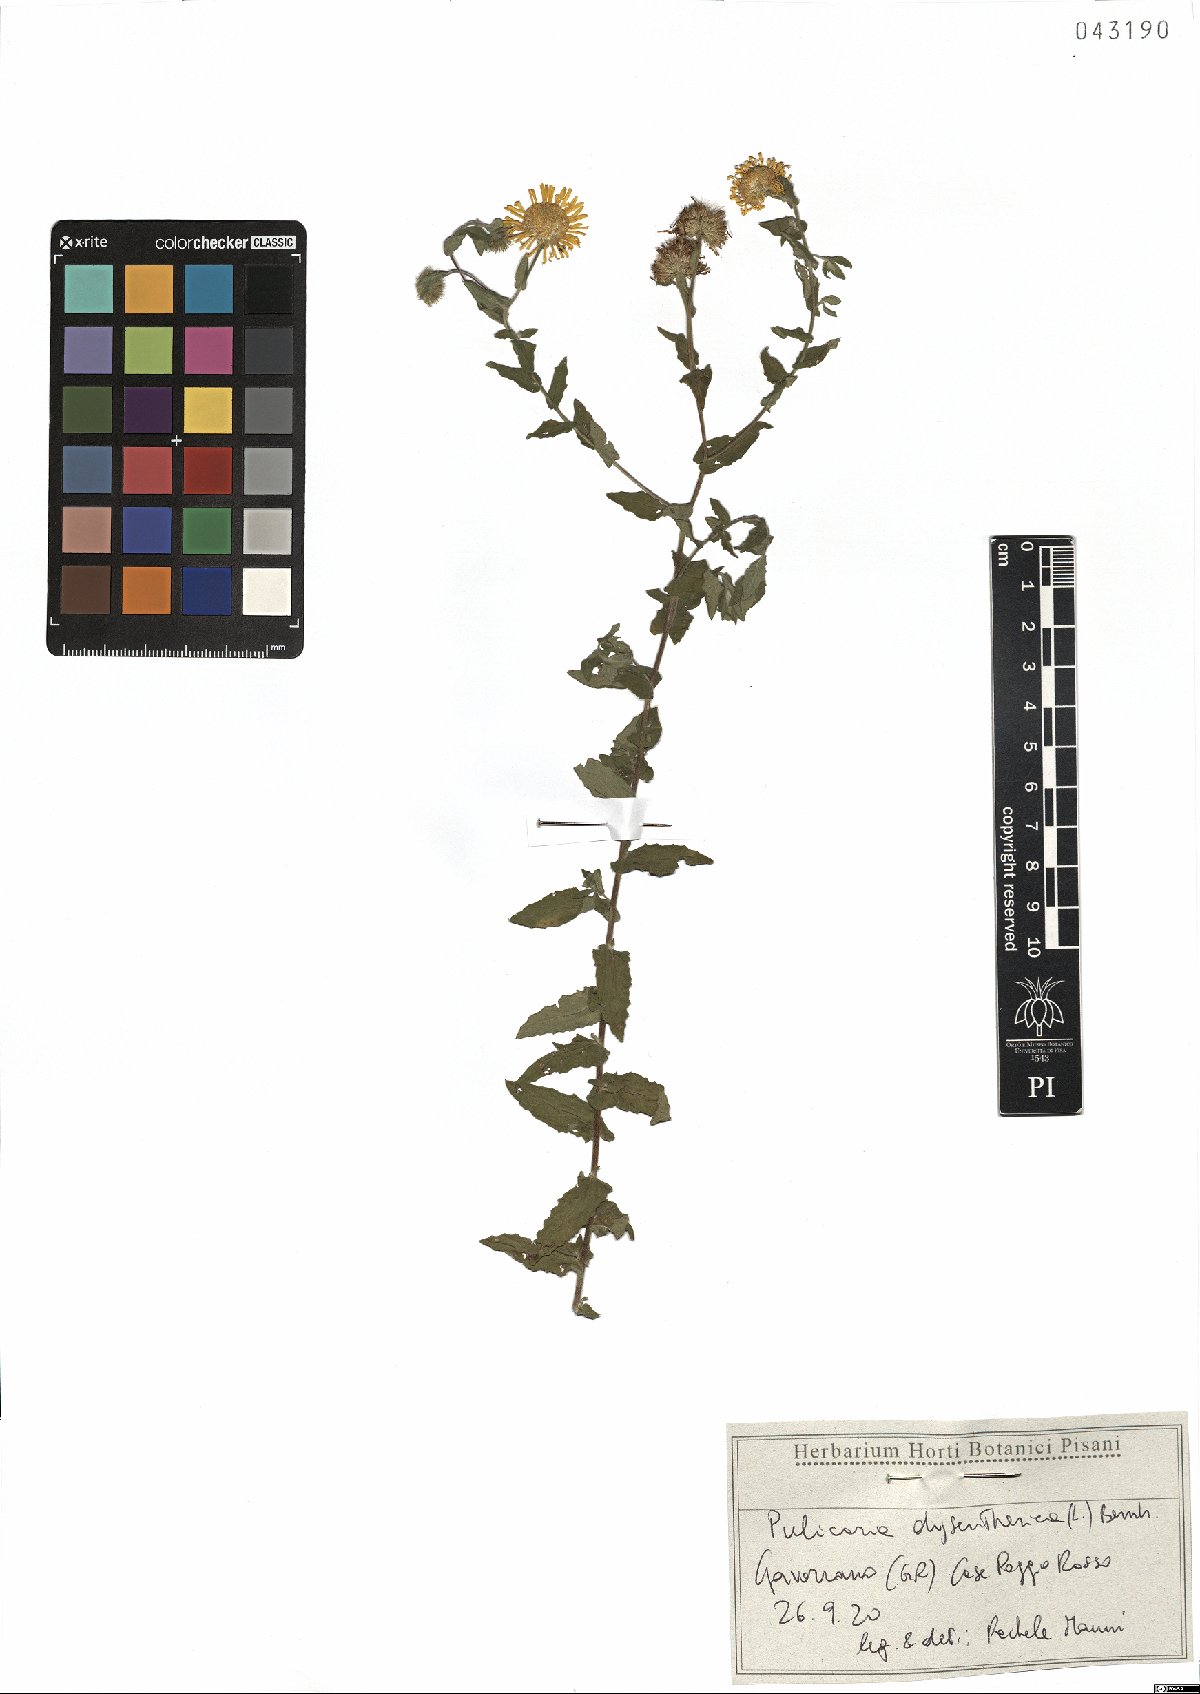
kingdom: Plantae
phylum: Tracheophyta
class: Magnoliopsida
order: Asterales
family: Asteraceae
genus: Pulicaria
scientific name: Pulicaria dysenterica
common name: Common fleabane
